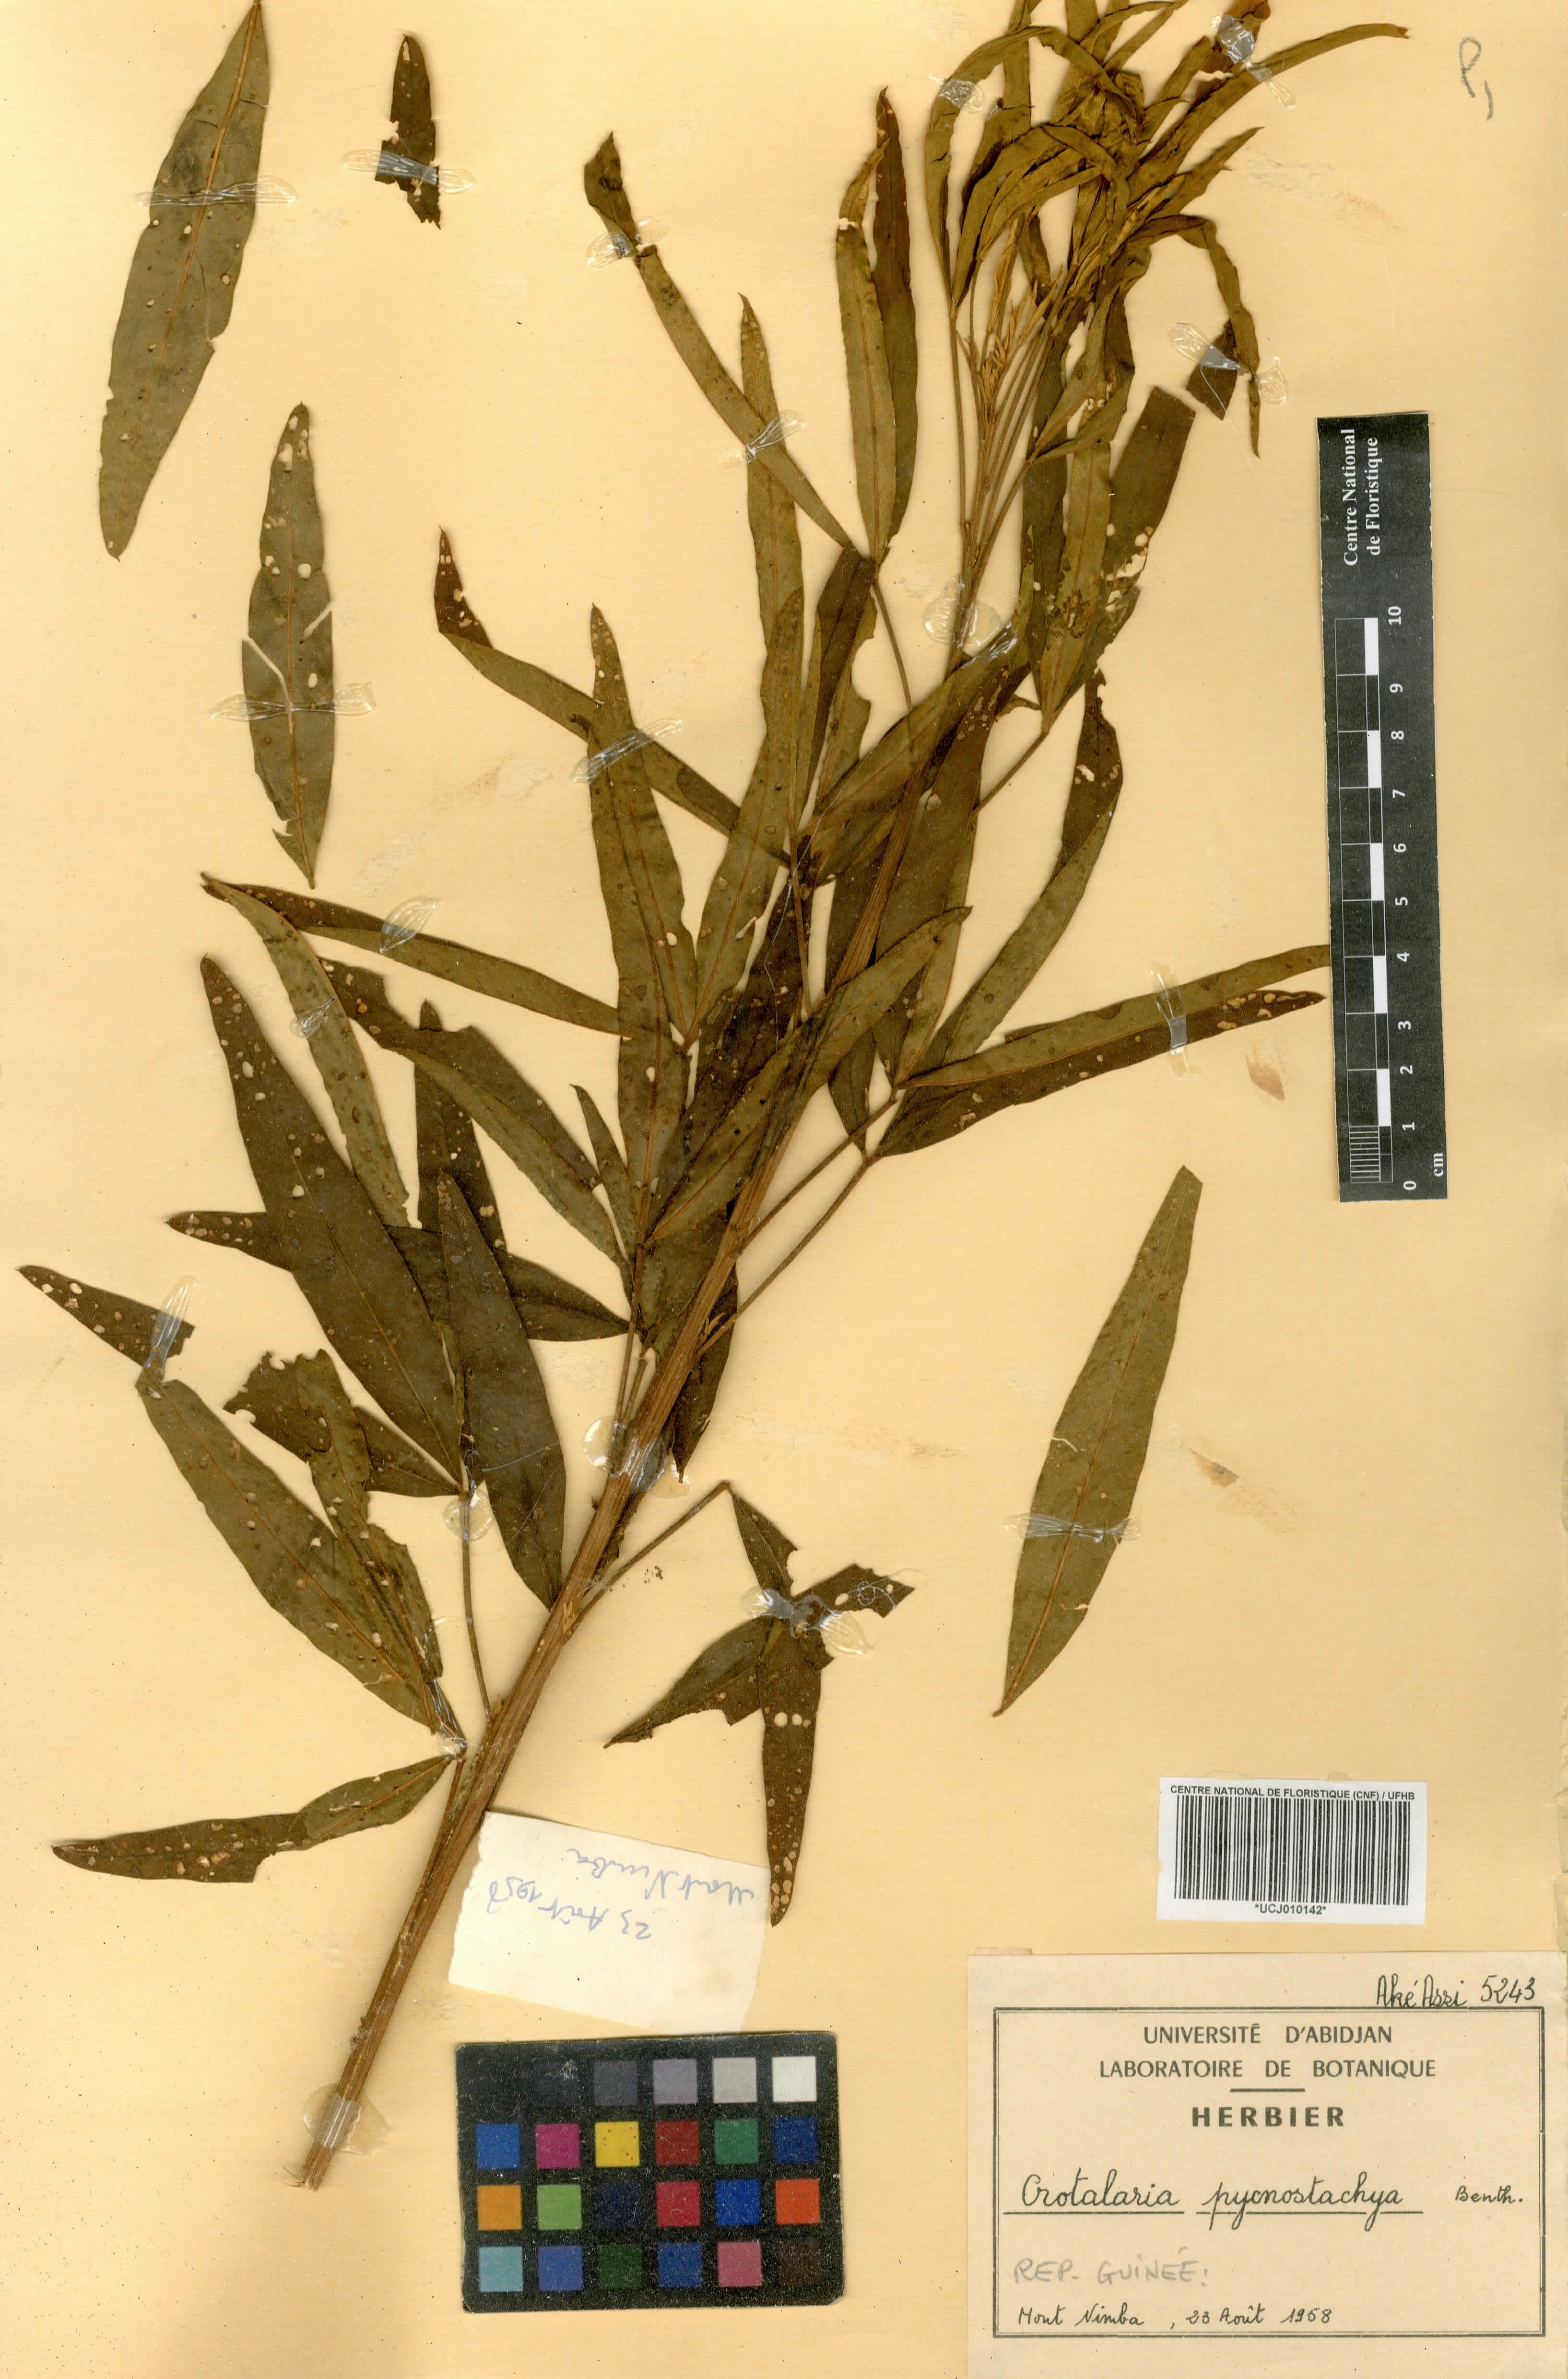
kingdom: Plantae
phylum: Tracheophyta
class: Magnoliopsida
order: Fabales
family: Fabaceae
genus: Crotalaria
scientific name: Crotalaria pycnostachya
